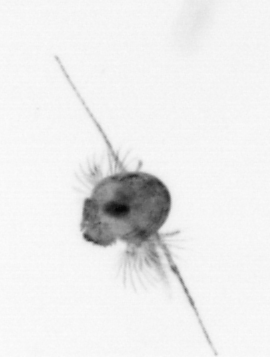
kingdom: Animalia
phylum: Arthropoda
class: Copepoda
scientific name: Copepoda
